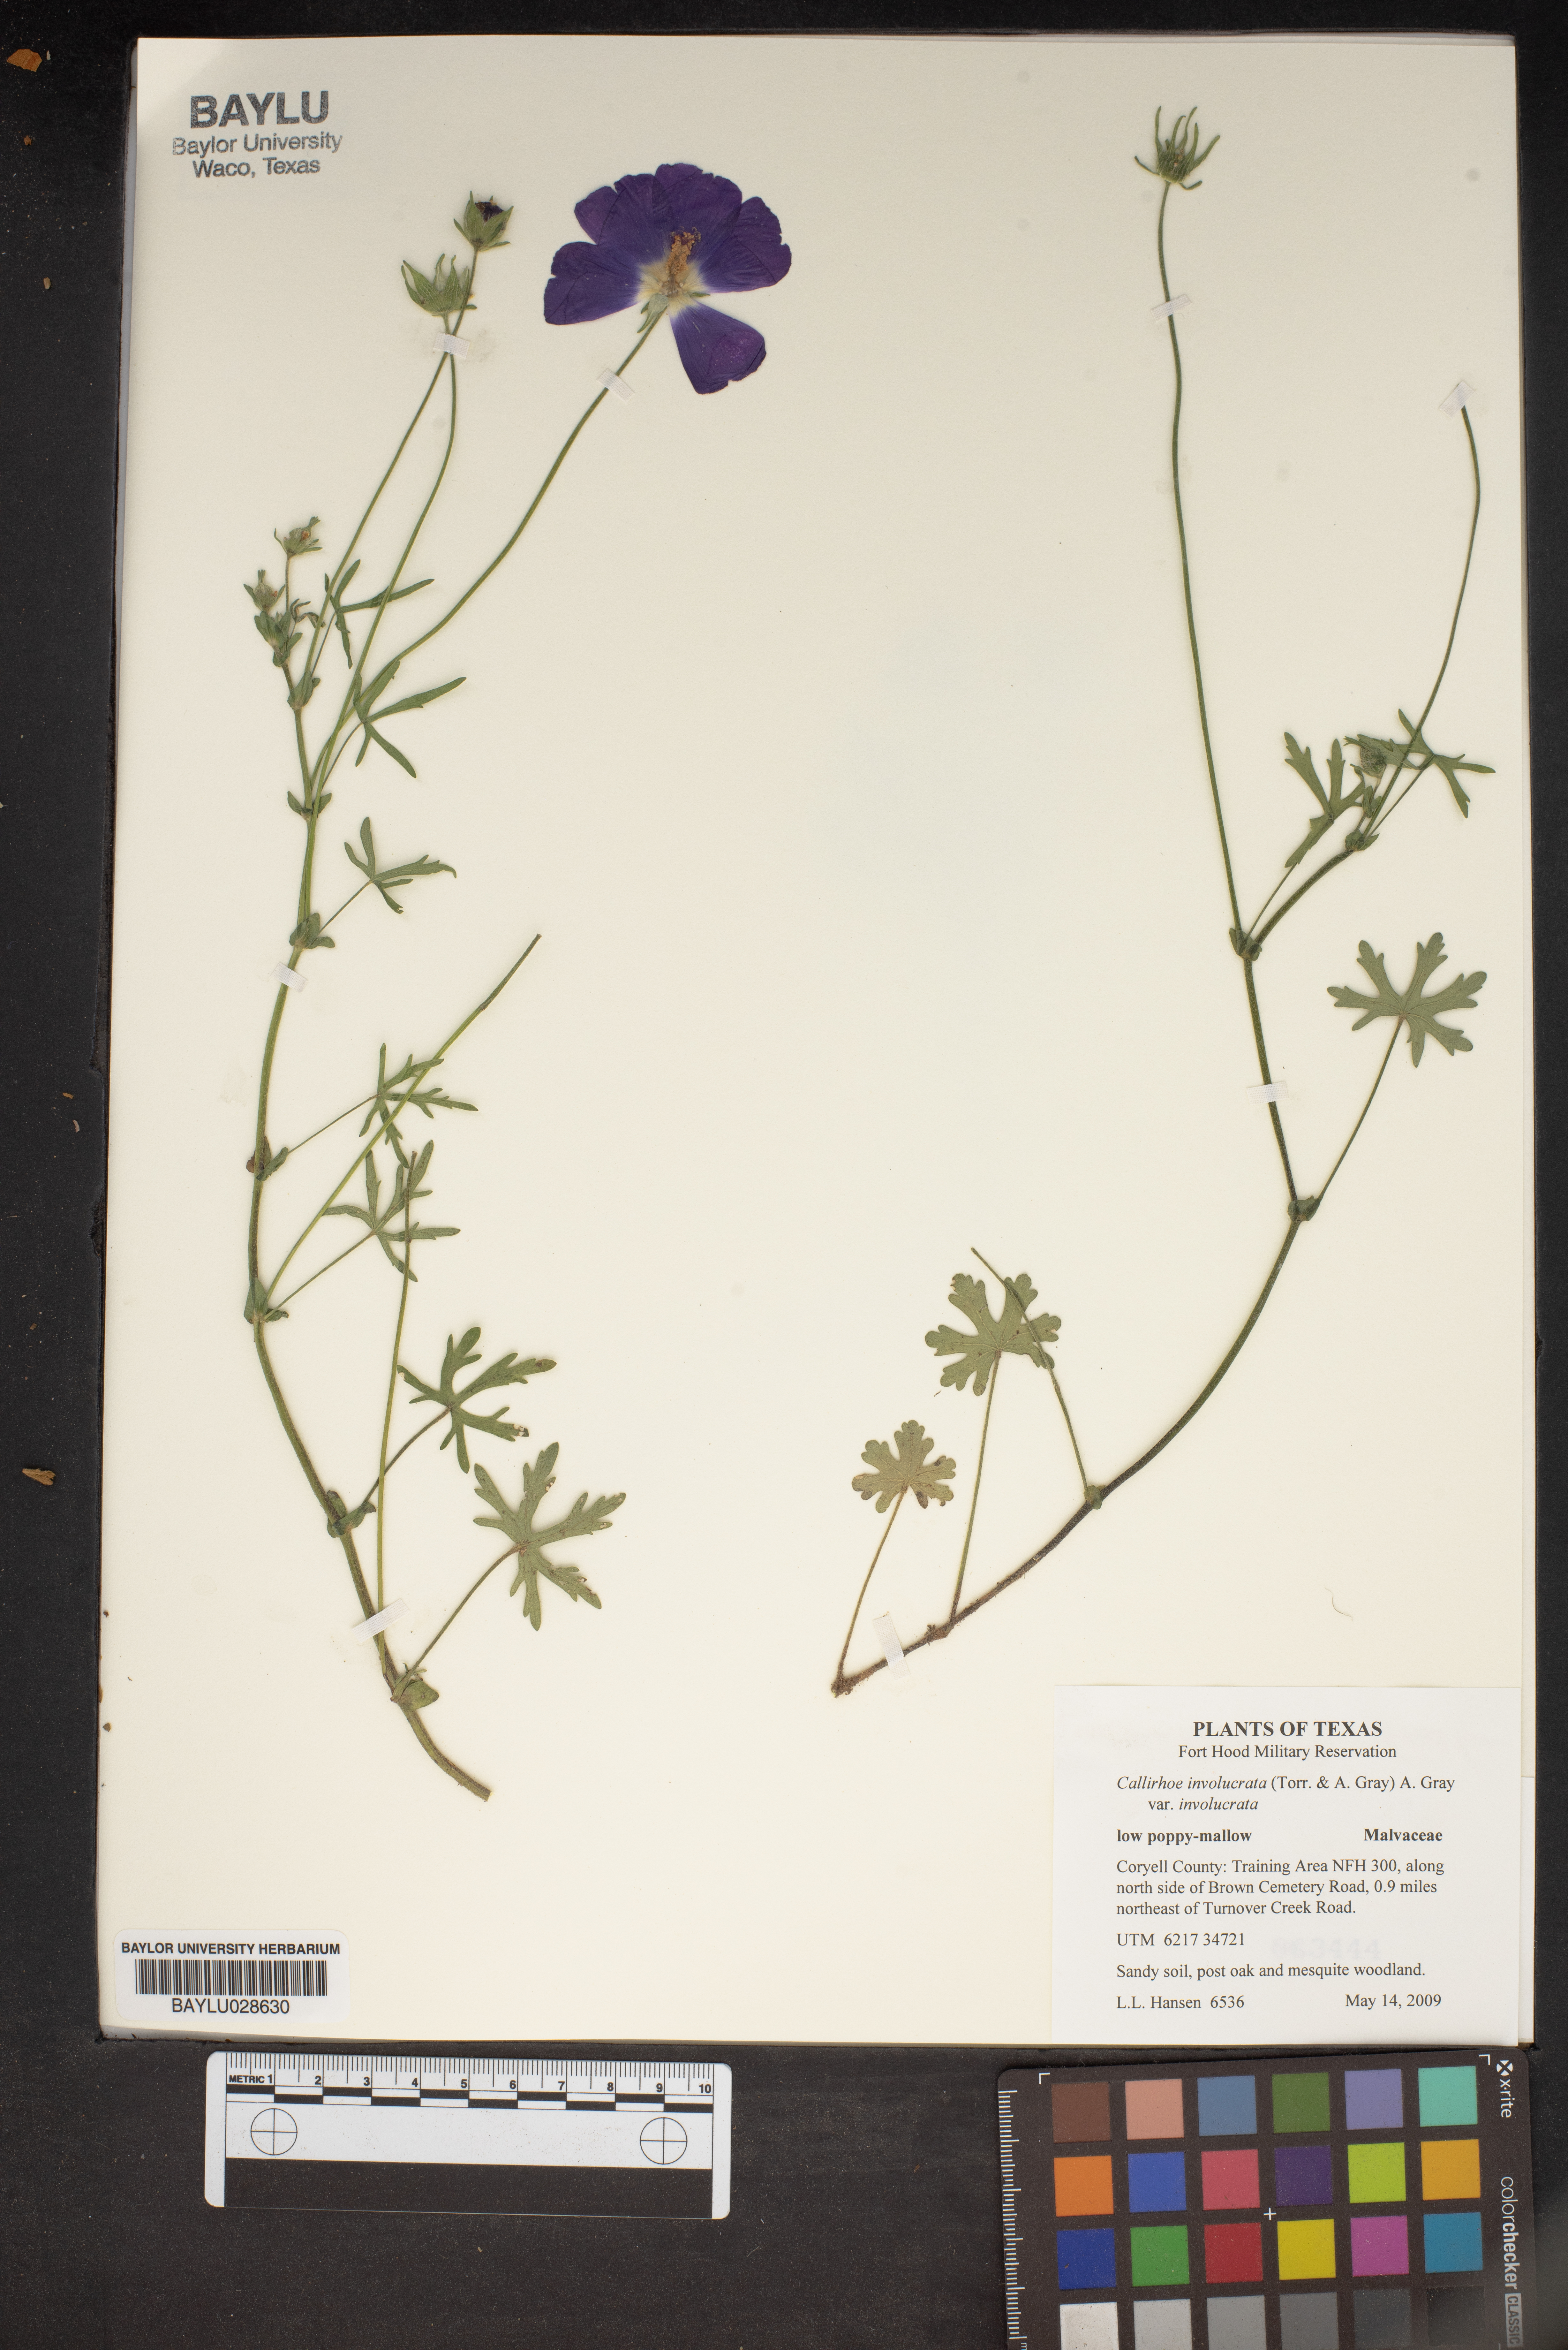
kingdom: Plantae
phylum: Tracheophyta
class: Magnoliopsida
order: Malvales
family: Malvaceae
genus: Callirhoe
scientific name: Callirhoe involucrata
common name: Purple poppy-mallow
